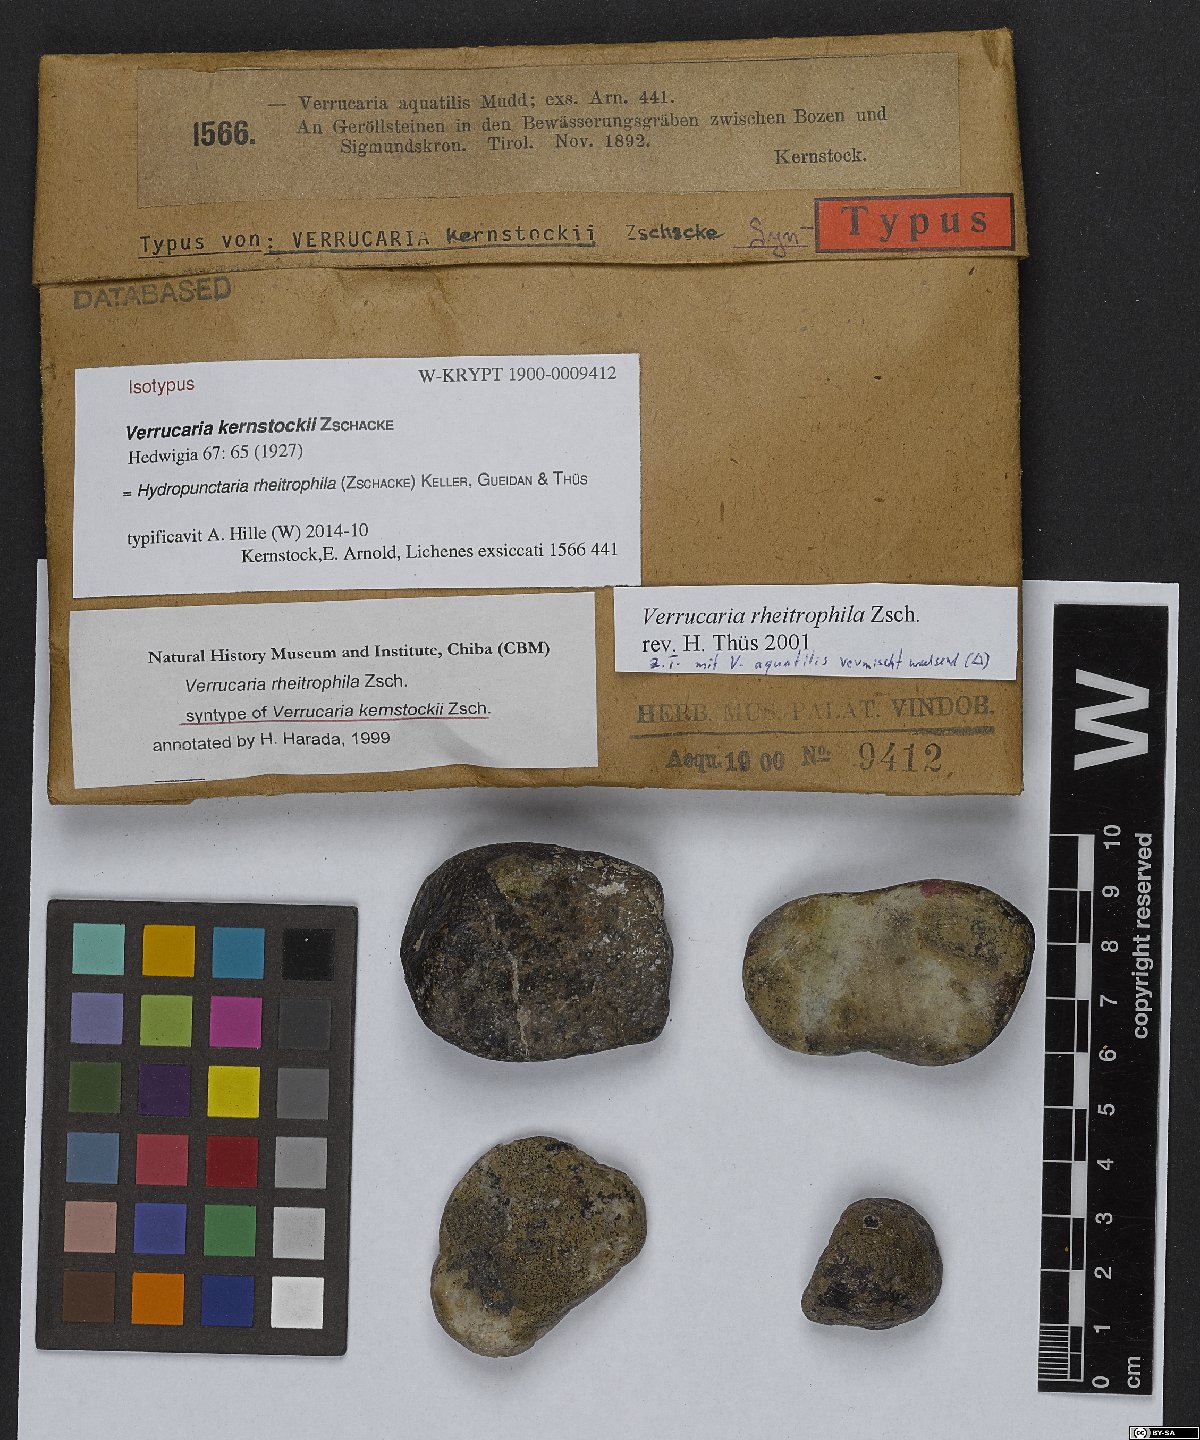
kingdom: Fungi
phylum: Ascomycota
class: Eurotiomycetes
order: Verrucariales
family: Verrucariaceae
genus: Hydropunctaria
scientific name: Hydropunctaria rheitrophila
